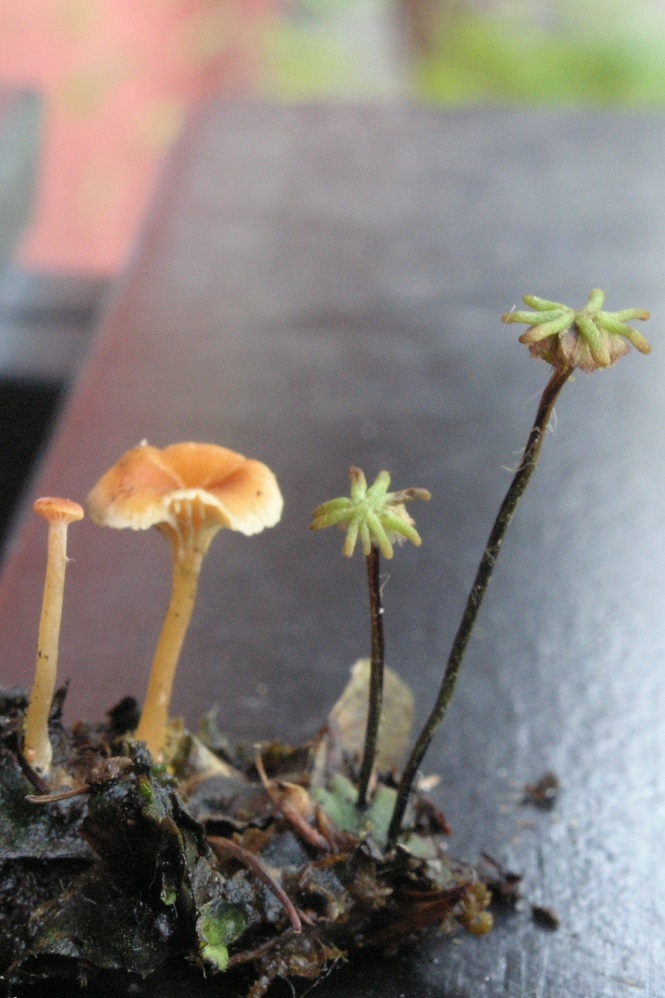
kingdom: Fungi
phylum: Basidiomycota
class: Agaricomycetes
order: Hymenochaetales
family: Rickenellaceae
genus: Loreleia
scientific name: Loreleia postii
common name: brandplet-mosnavlehat
